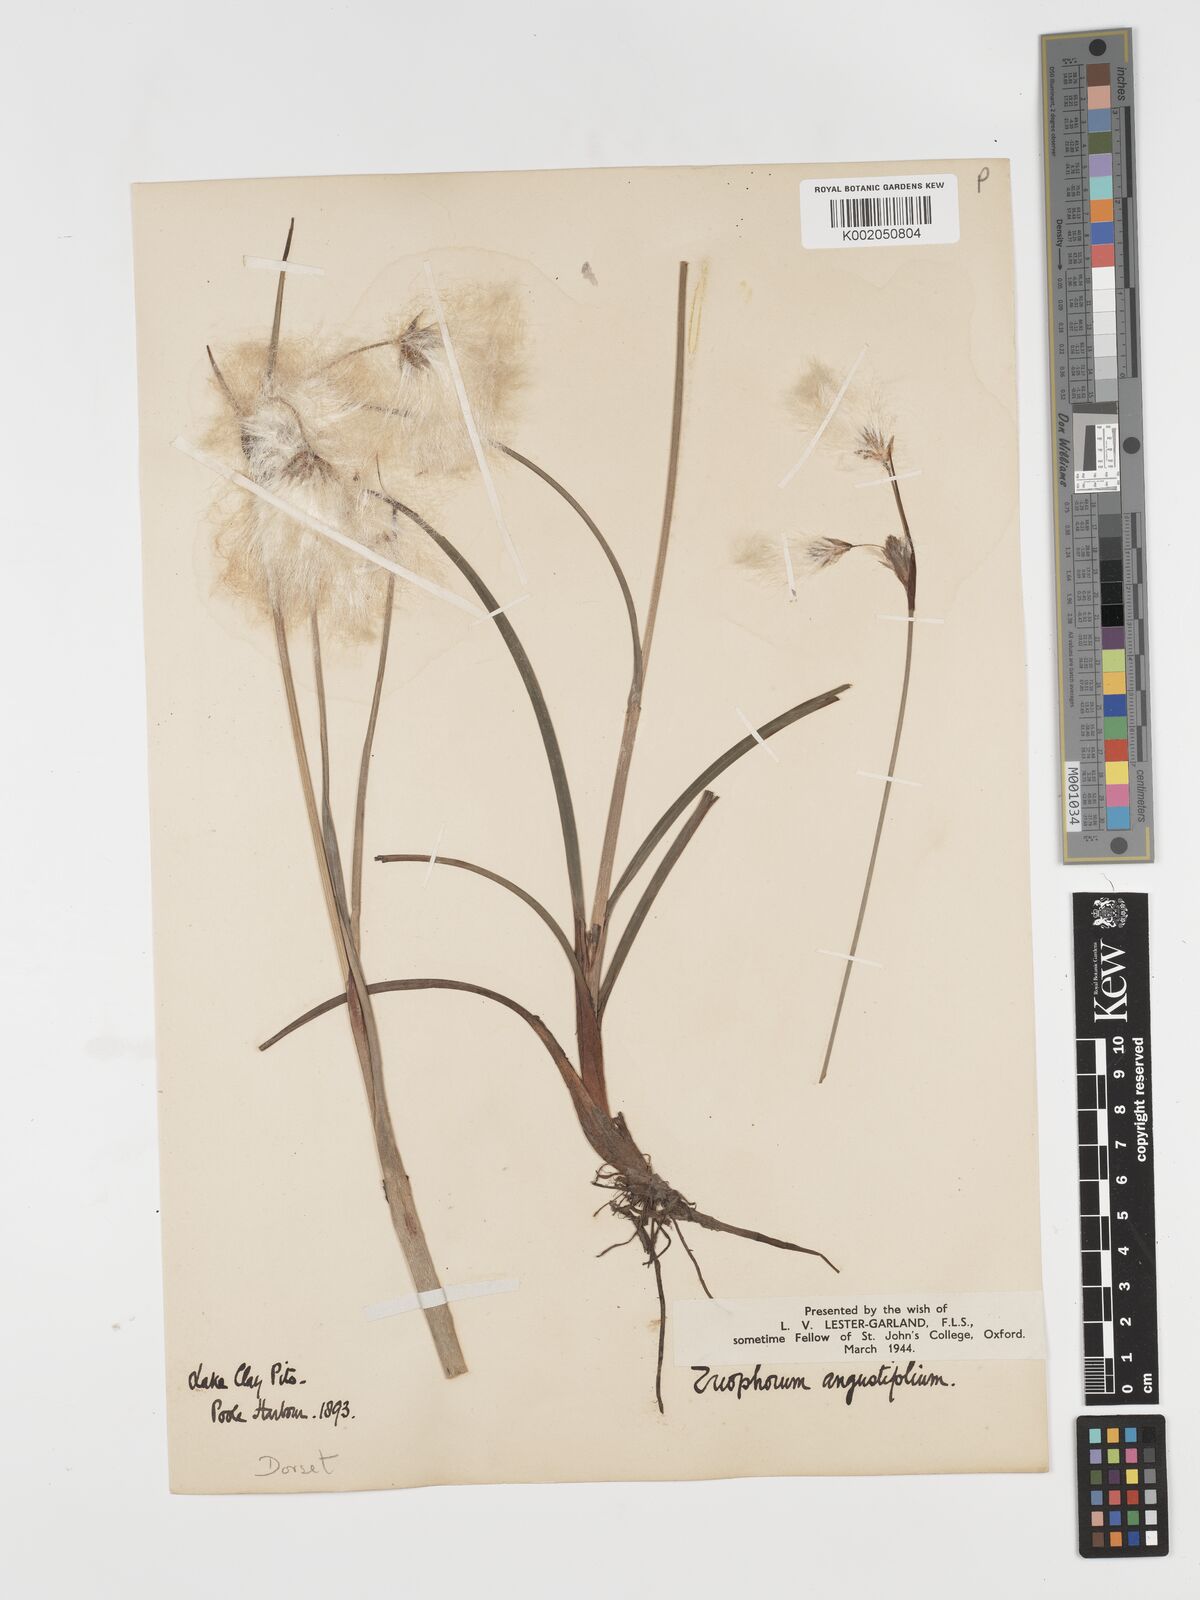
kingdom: Plantae
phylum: Tracheophyta
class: Liliopsida
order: Poales
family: Cyperaceae
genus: Eriophorum
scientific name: Eriophorum angustifolium
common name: Common cottongrass
